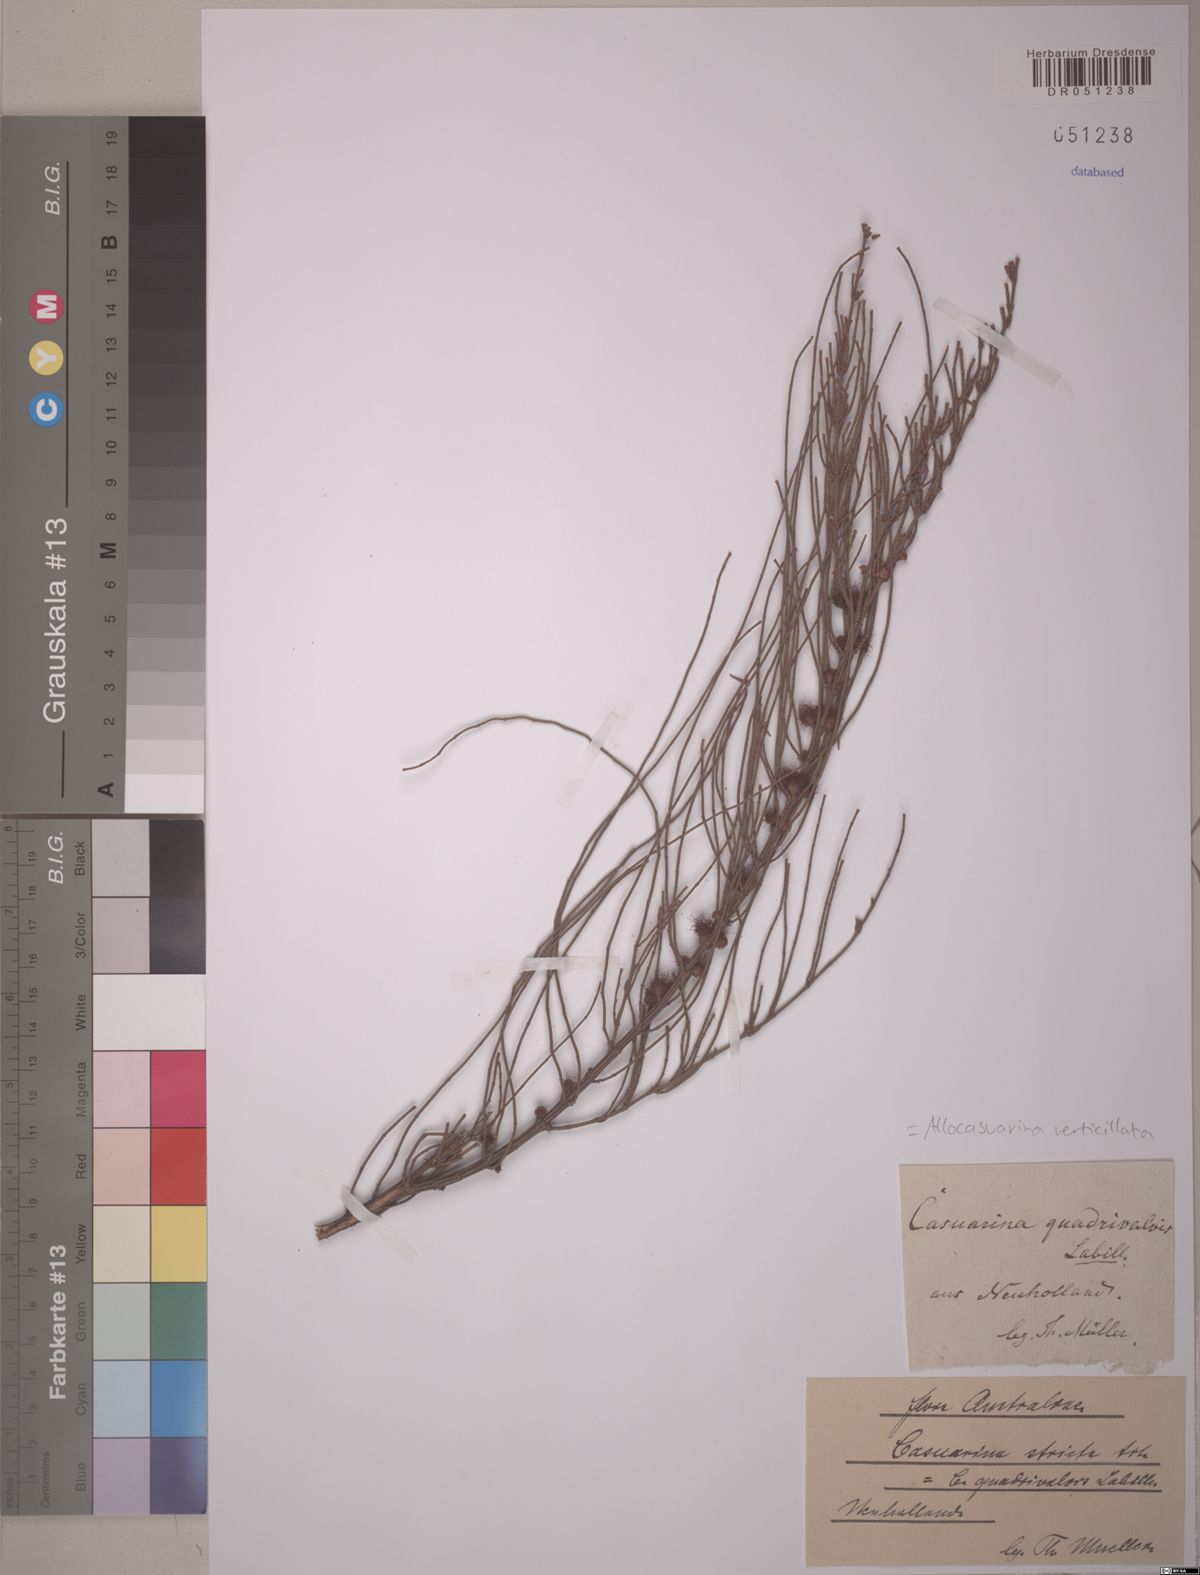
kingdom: Plantae
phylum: Tracheophyta
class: Magnoliopsida
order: Fagales
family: Casuarinaceae
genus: Allocasuarina
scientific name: Allocasuarina verticillata
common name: Drooping she-oak
